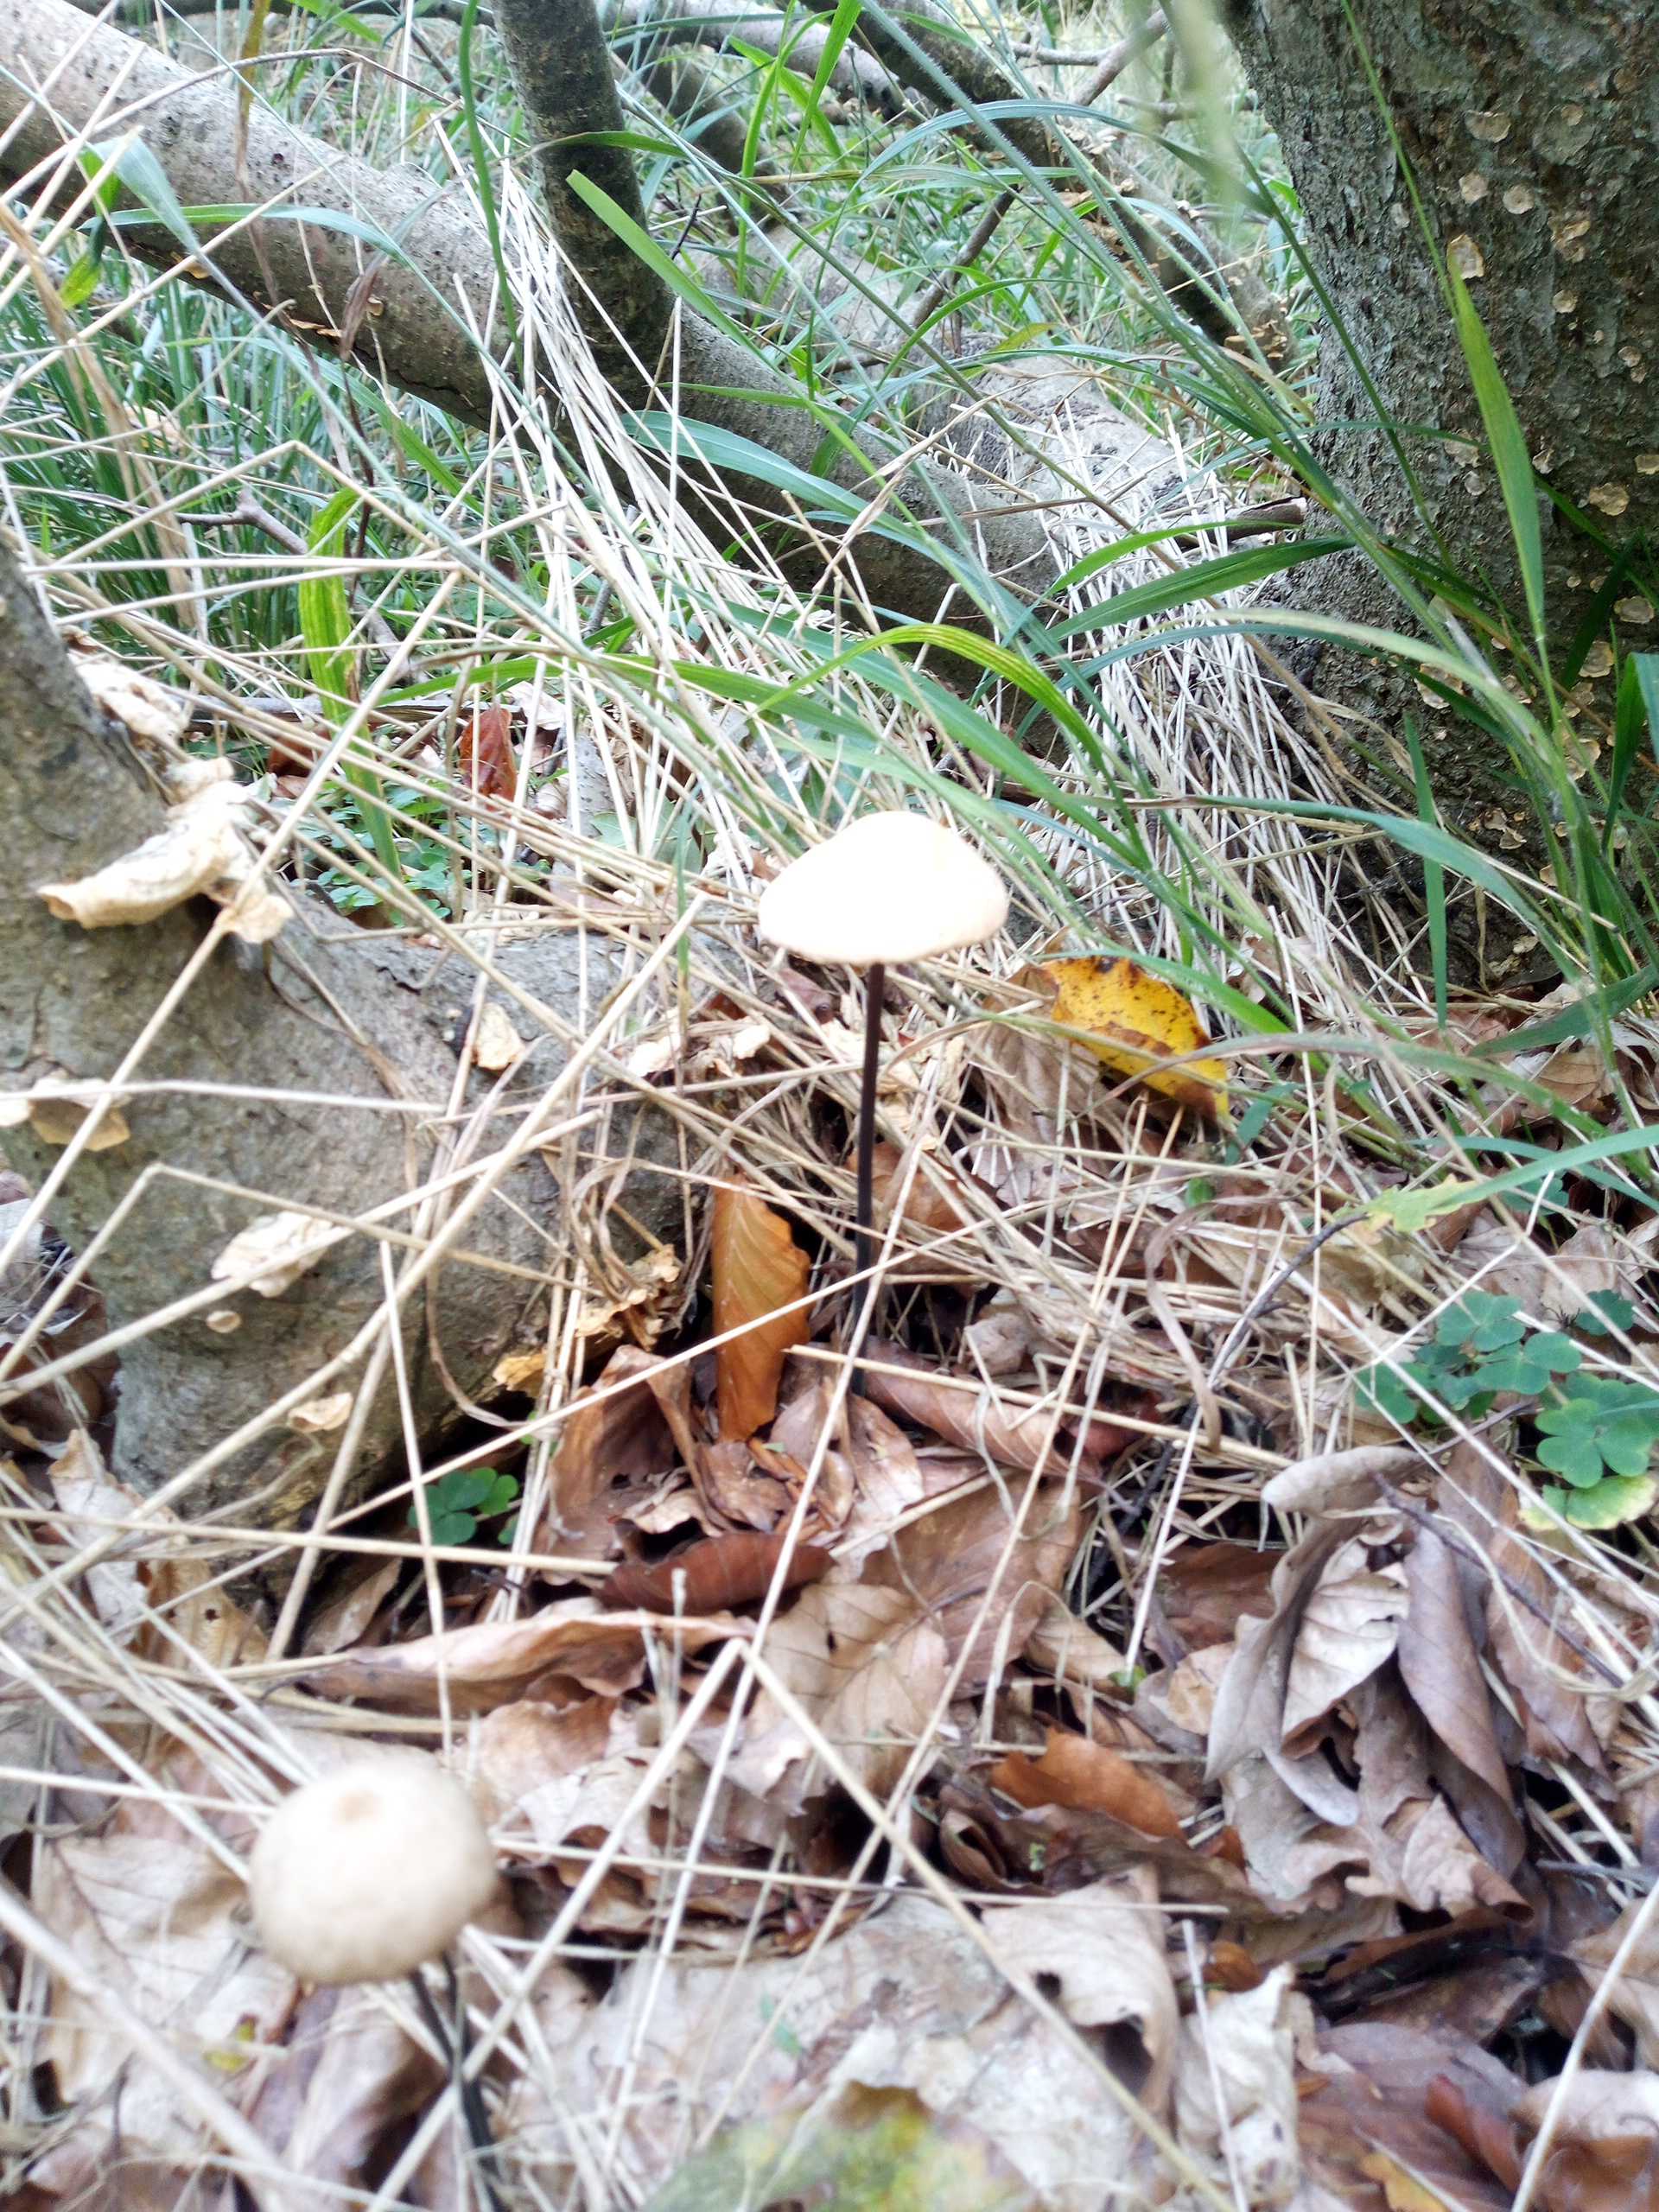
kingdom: Fungi
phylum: Basidiomycota
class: Agaricomycetes
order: Agaricales
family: Omphalotaceae
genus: Mycetinis
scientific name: Mycetinis alliaceus
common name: stor løghat
